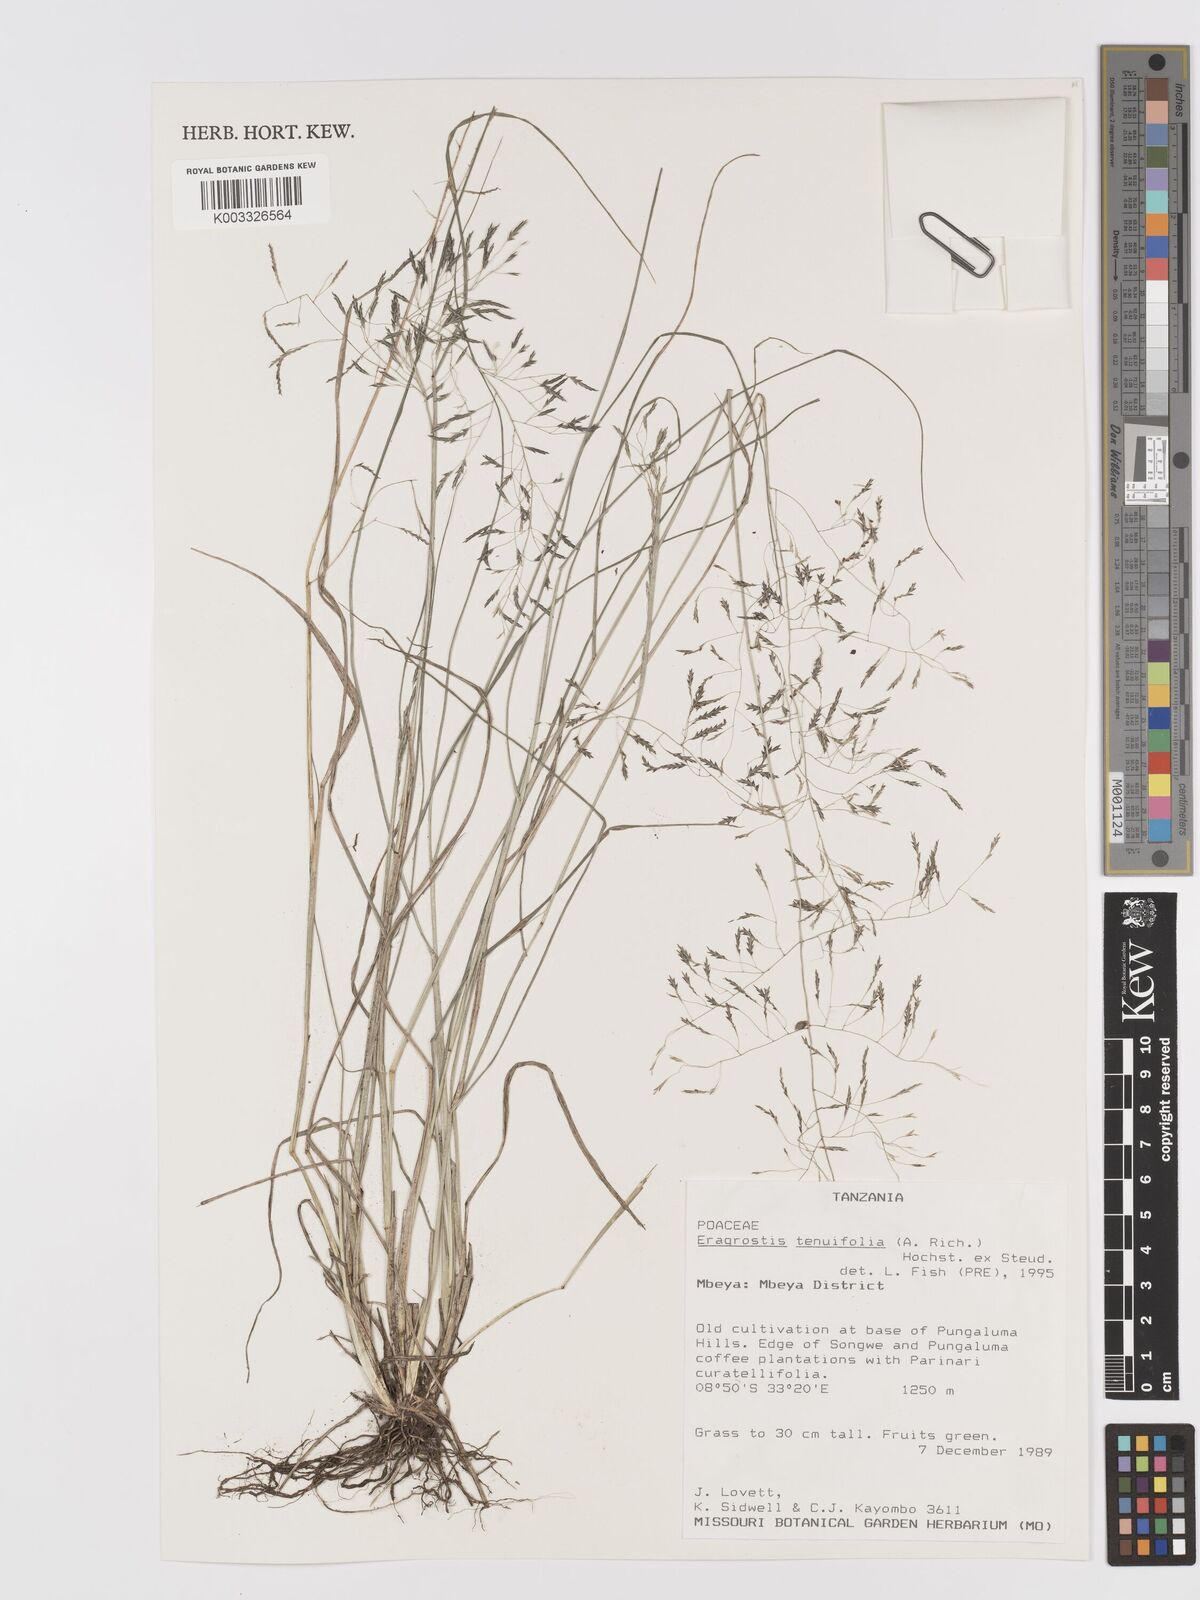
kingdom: Plantae
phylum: Tracheophyta
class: Liliopsida
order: Poales
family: Poaceae
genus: Eragrostis
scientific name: Eragrostis tenuifolia
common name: Elastic grass
